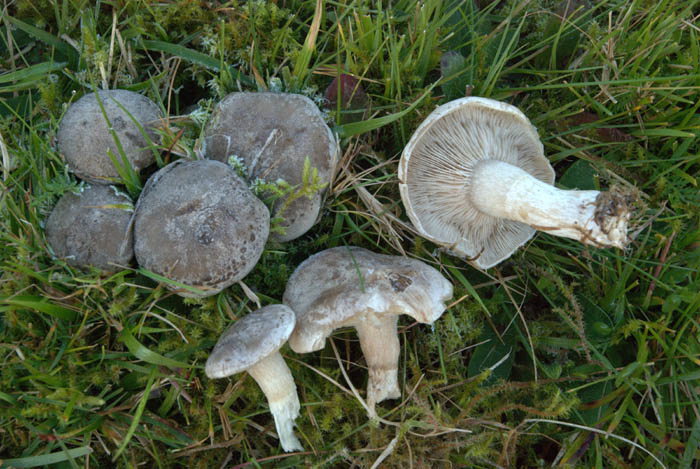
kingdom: Fungi
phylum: Basidiomycota
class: Agaricomycetes
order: Agaricales
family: Tricholomataceae
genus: Lepista
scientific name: Lepista panaeolus
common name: marmoreret hekseringshat
